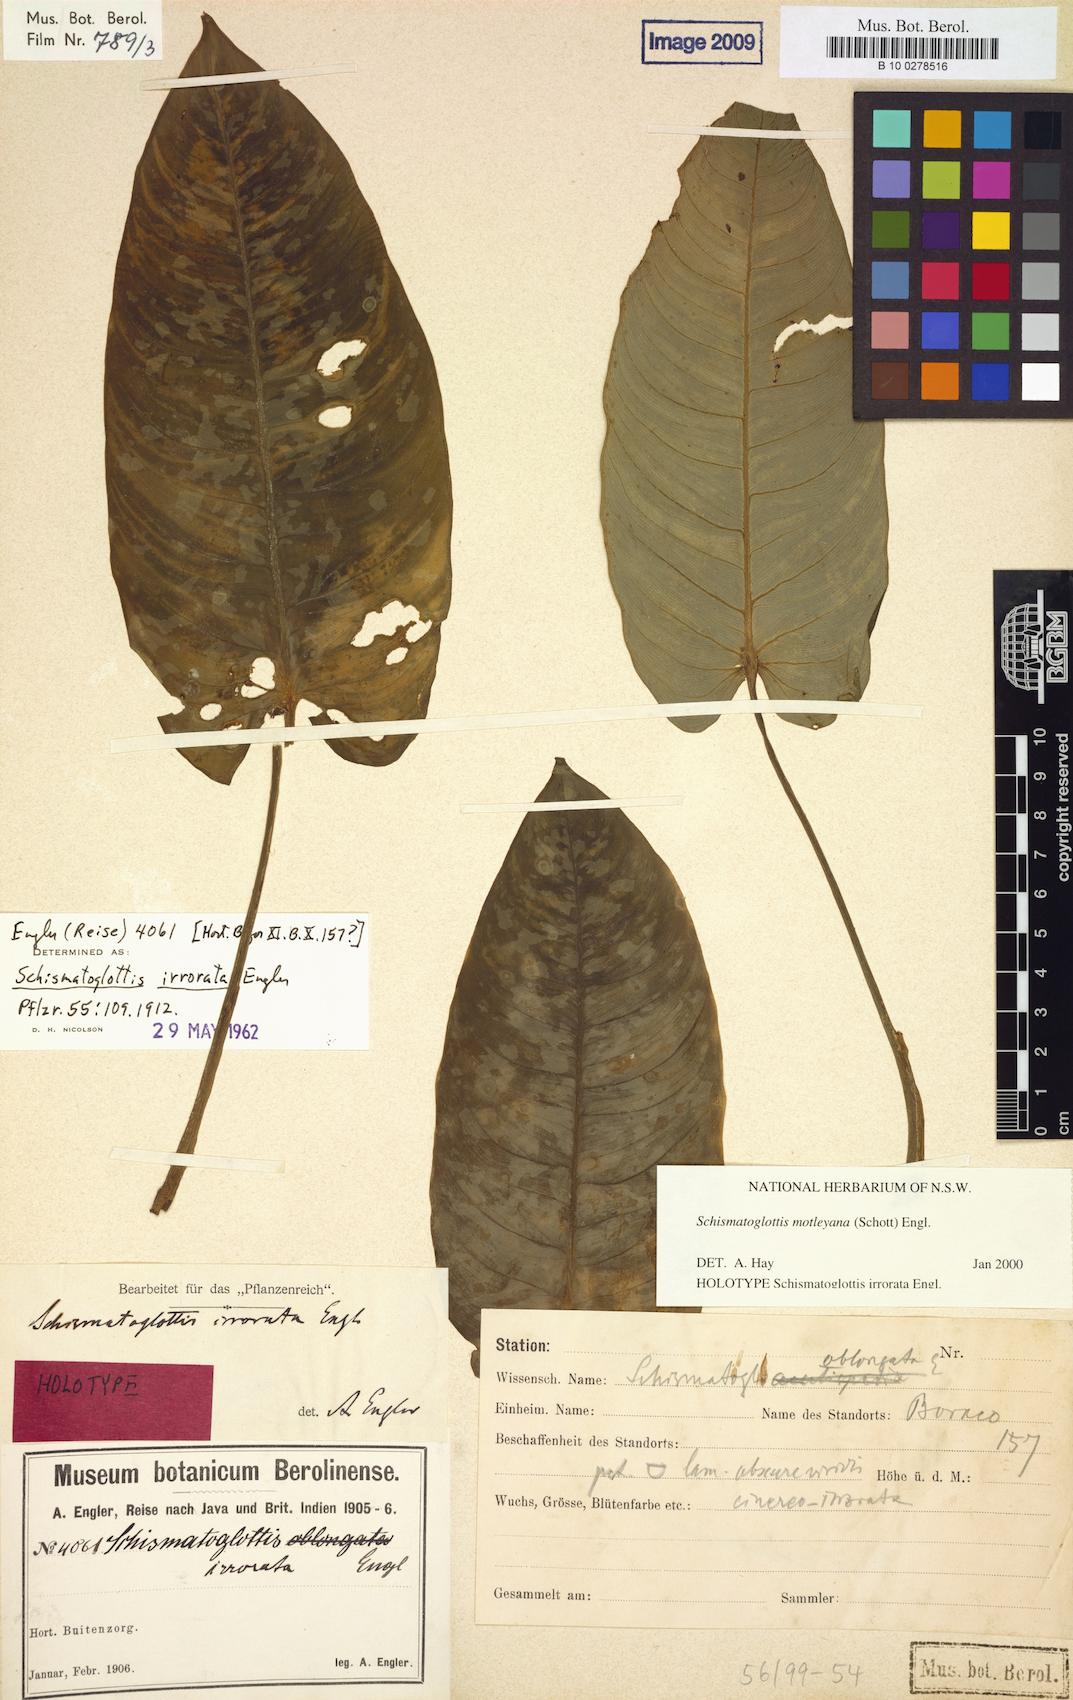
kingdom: Plantae
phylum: Tracheophyta
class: Liliopsida
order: Alismatales
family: Araceae
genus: Schismatoglottis
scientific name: Schismatoglottis motleyana
